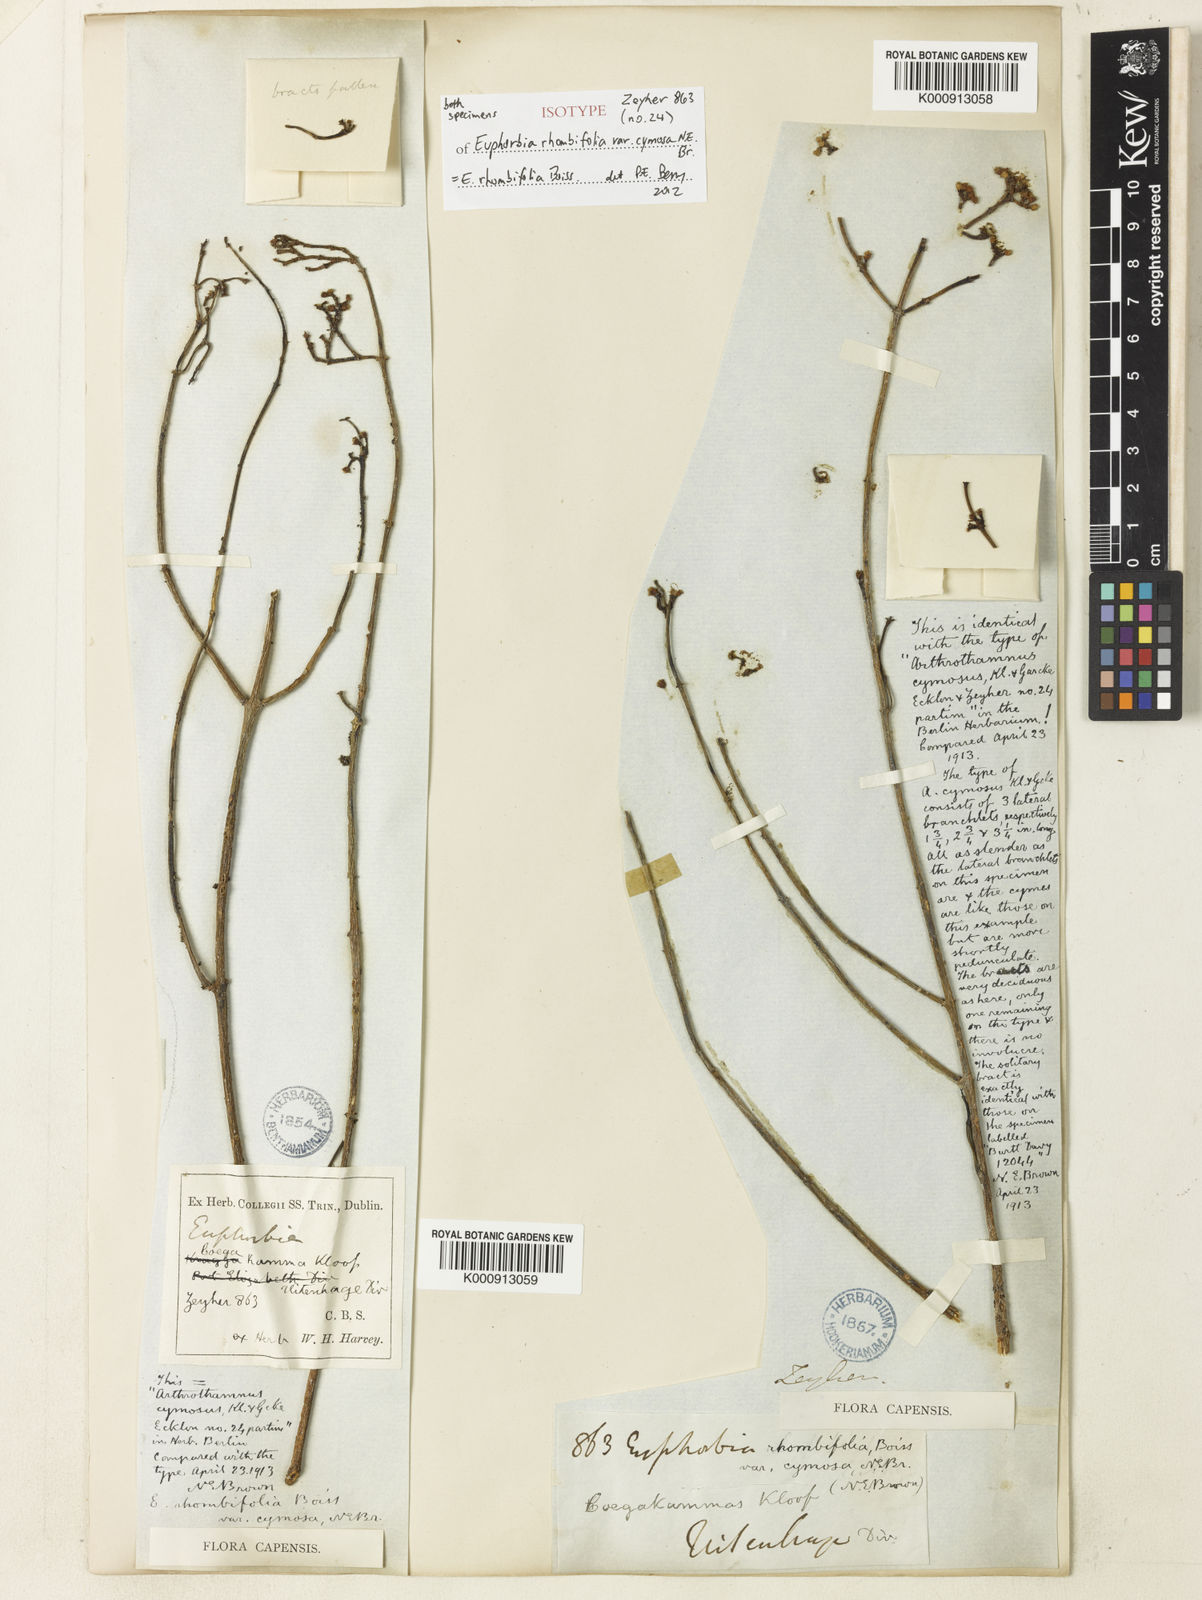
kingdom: Plantae
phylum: Tracheophyta
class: Magnoliopsida
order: Malpighiales
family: Euphorbiaceae
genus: Euphorbia
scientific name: Euphorbia rhombifolia
